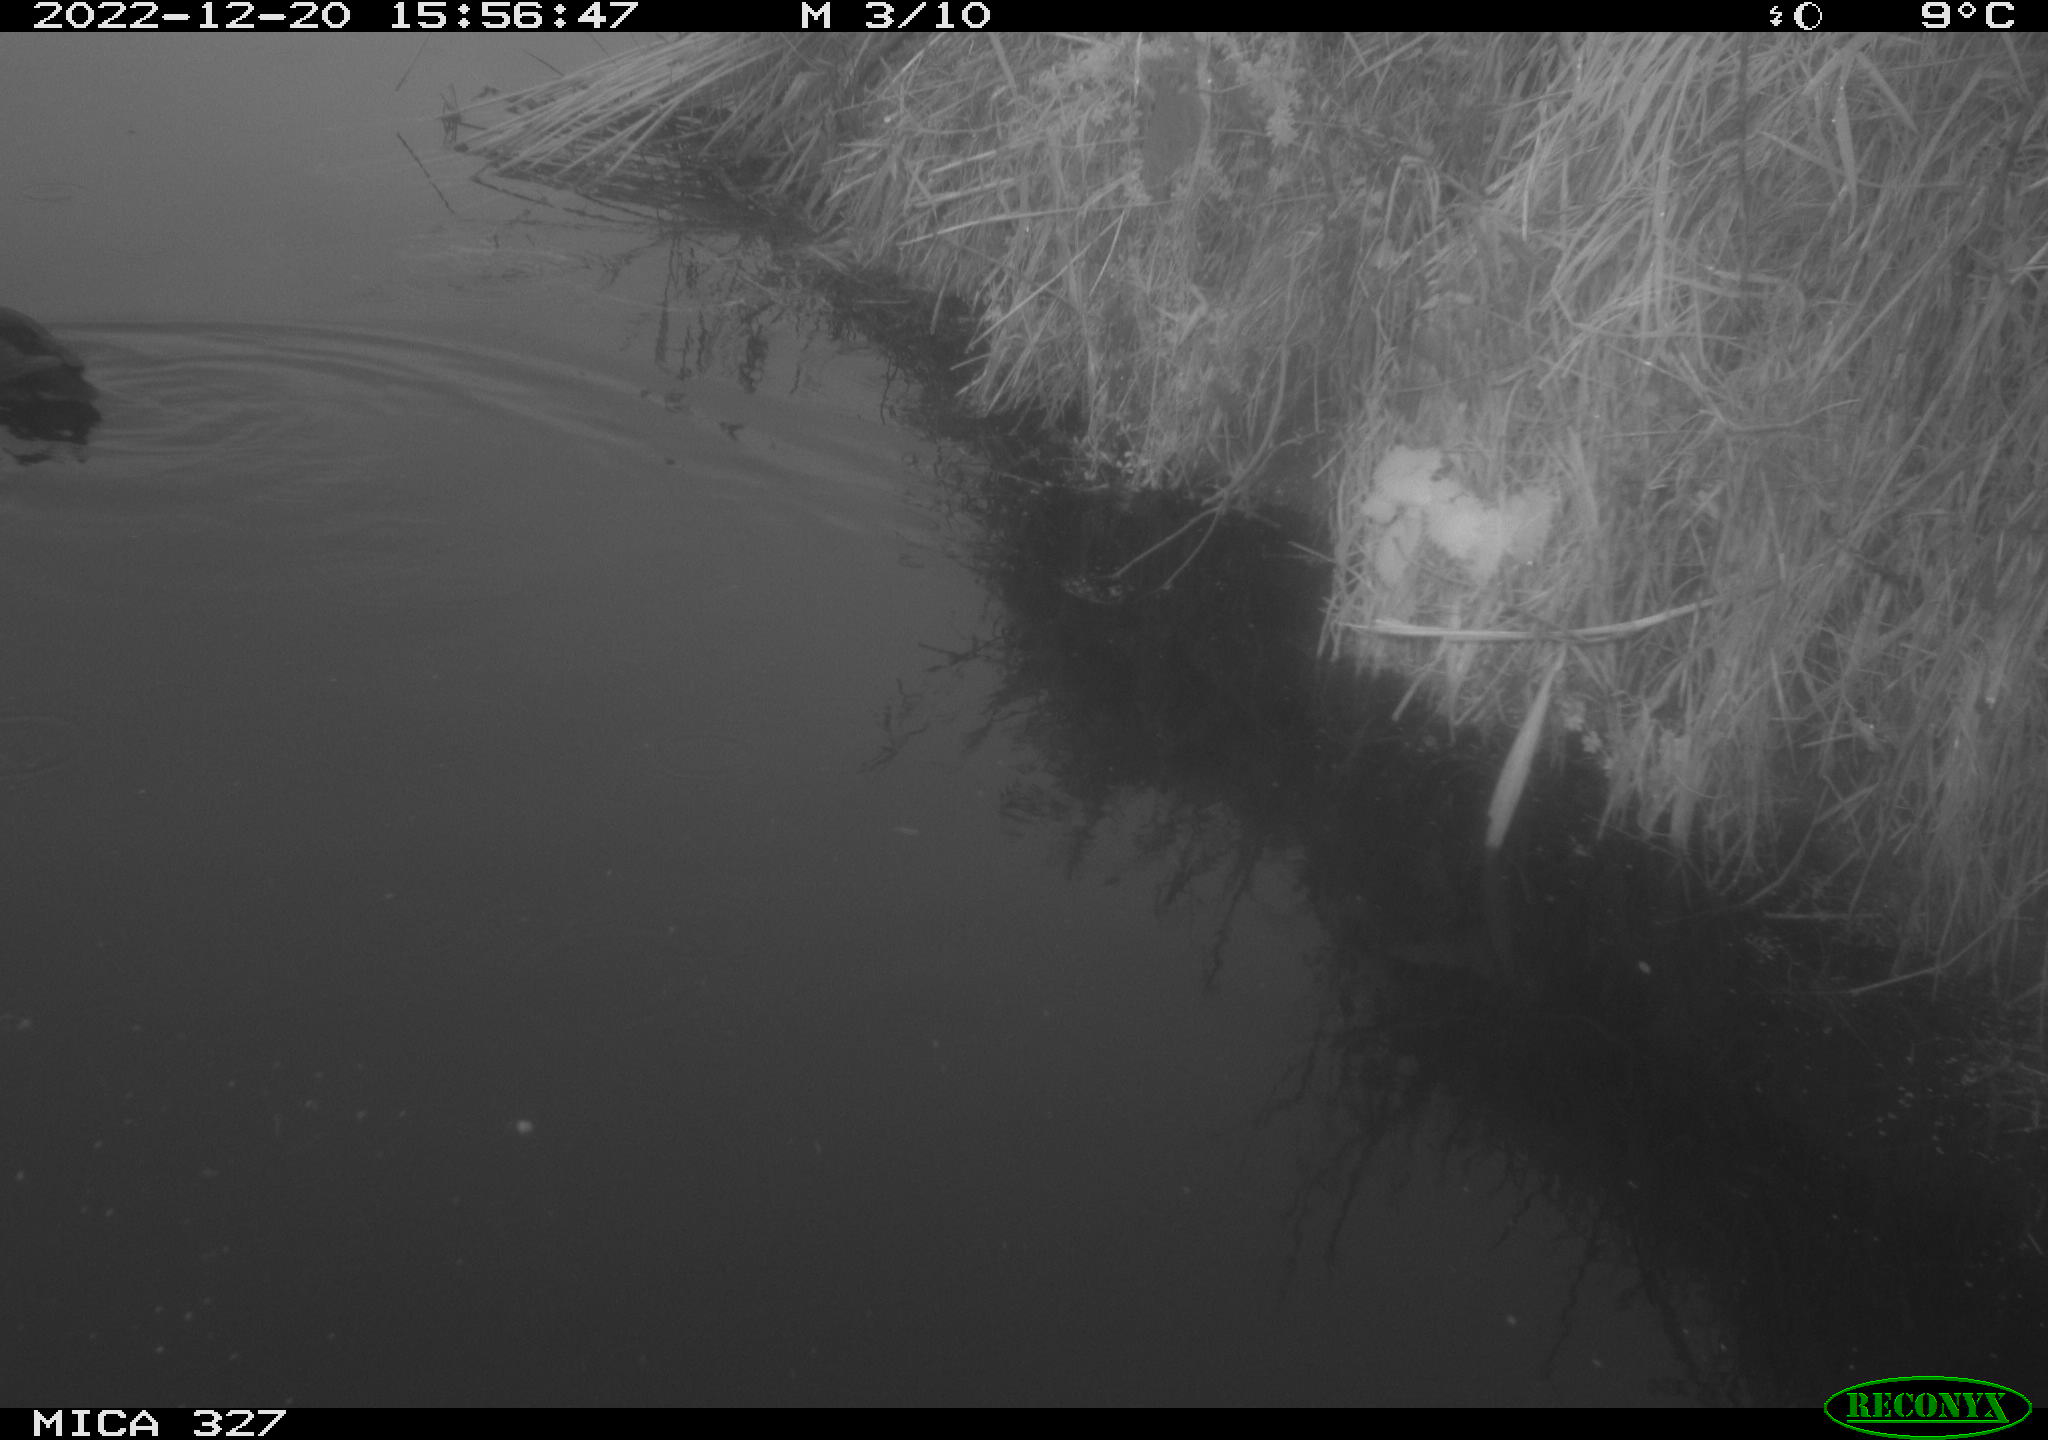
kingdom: Animalia
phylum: Chordata
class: Aves
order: Gruiformes
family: Rallidae
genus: Gallinula
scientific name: Gallinula chloropus
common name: Common moorhen
